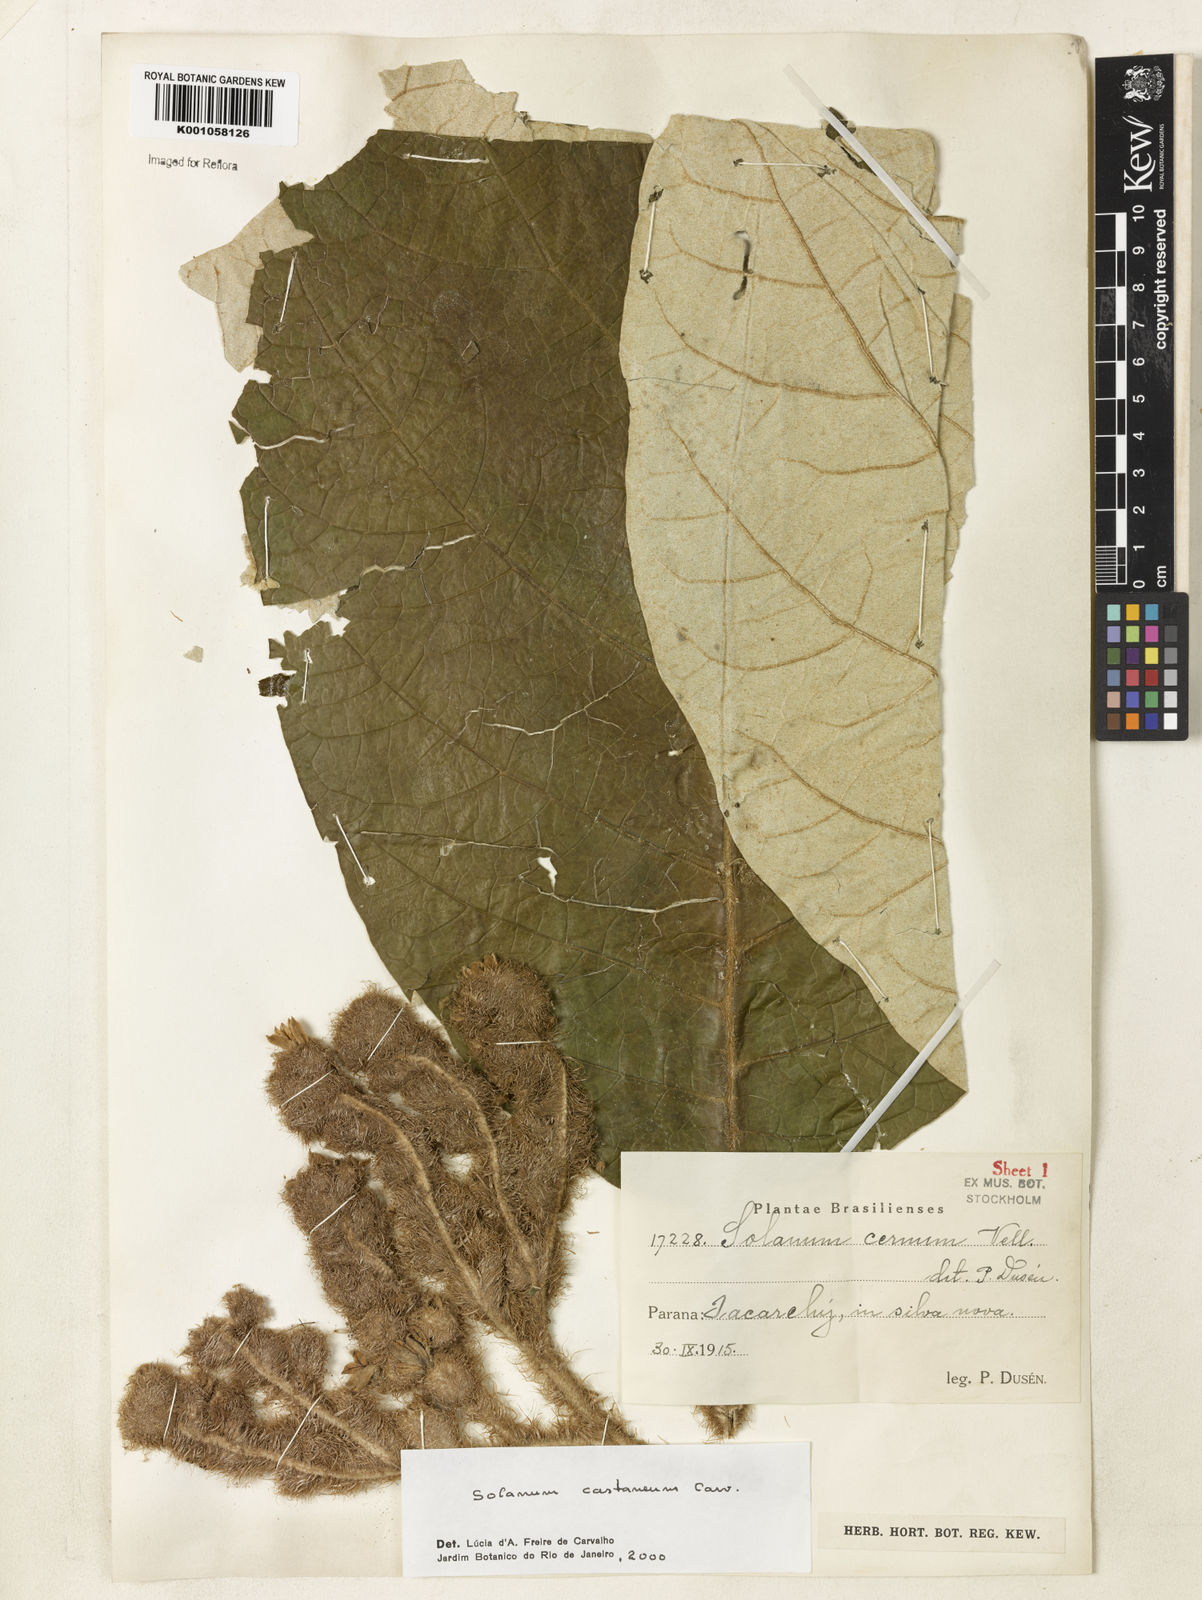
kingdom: Plantae
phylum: Tracheophyta
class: Magnoliopsida
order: Solanales
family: Solanaceae
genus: Solanum
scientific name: Solanum castaneum
